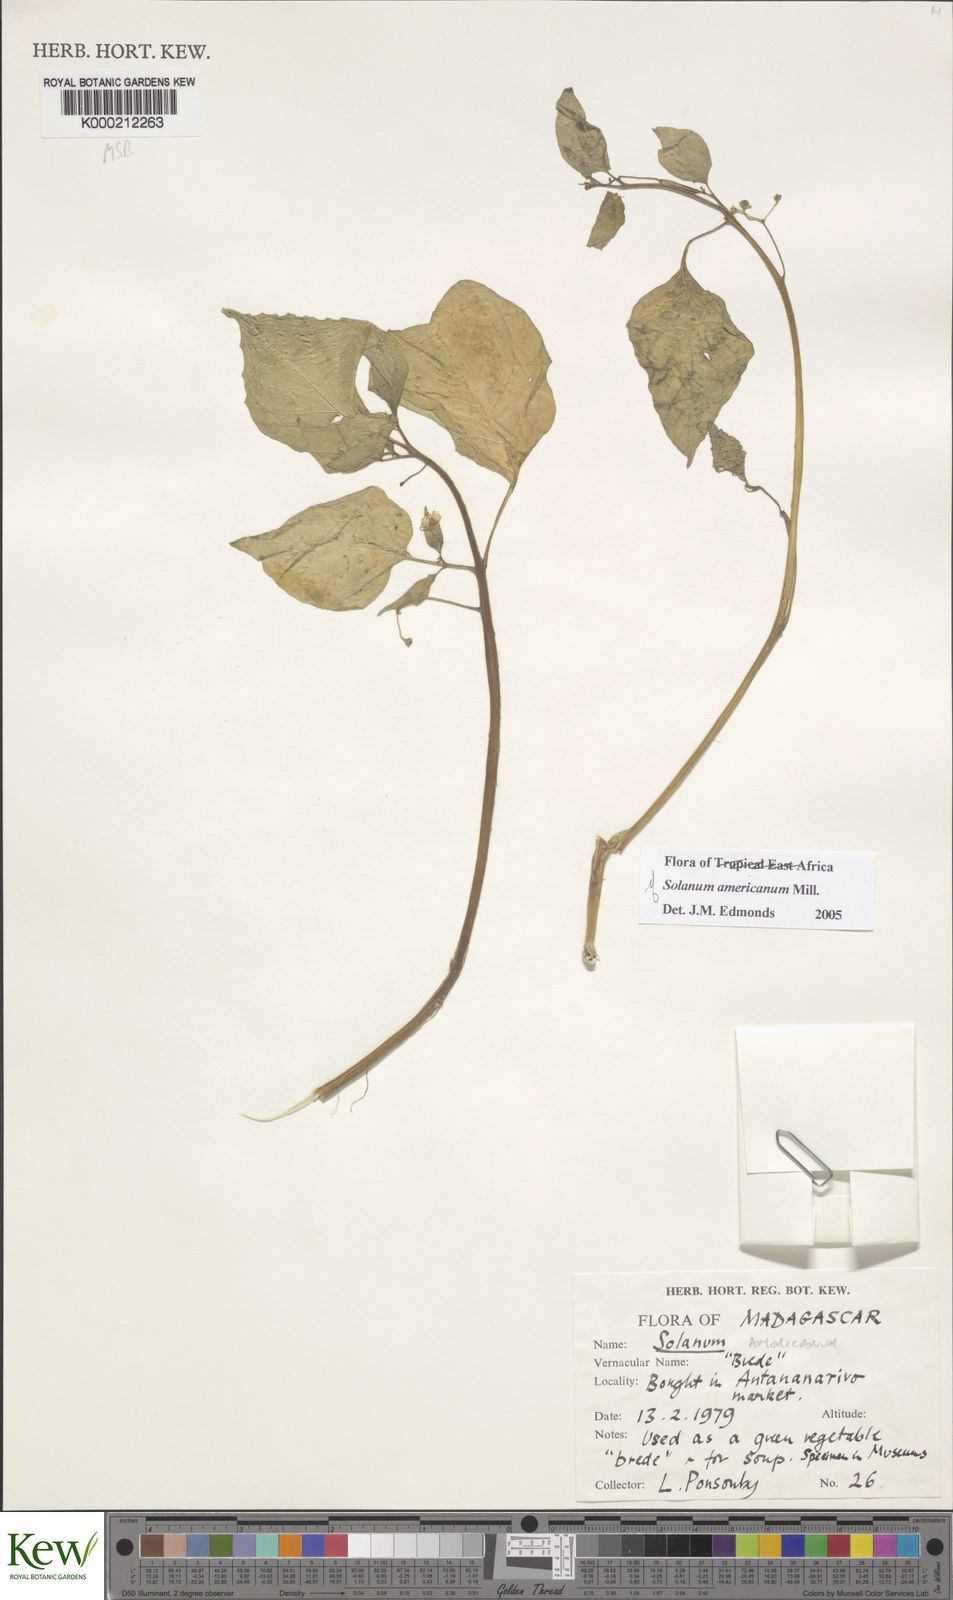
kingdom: Plantae
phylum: Tracheophyta
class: Magnoliopsida
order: Solanales
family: Solanaceae
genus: Solanum
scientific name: Solanum americanum
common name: American black nightshade
